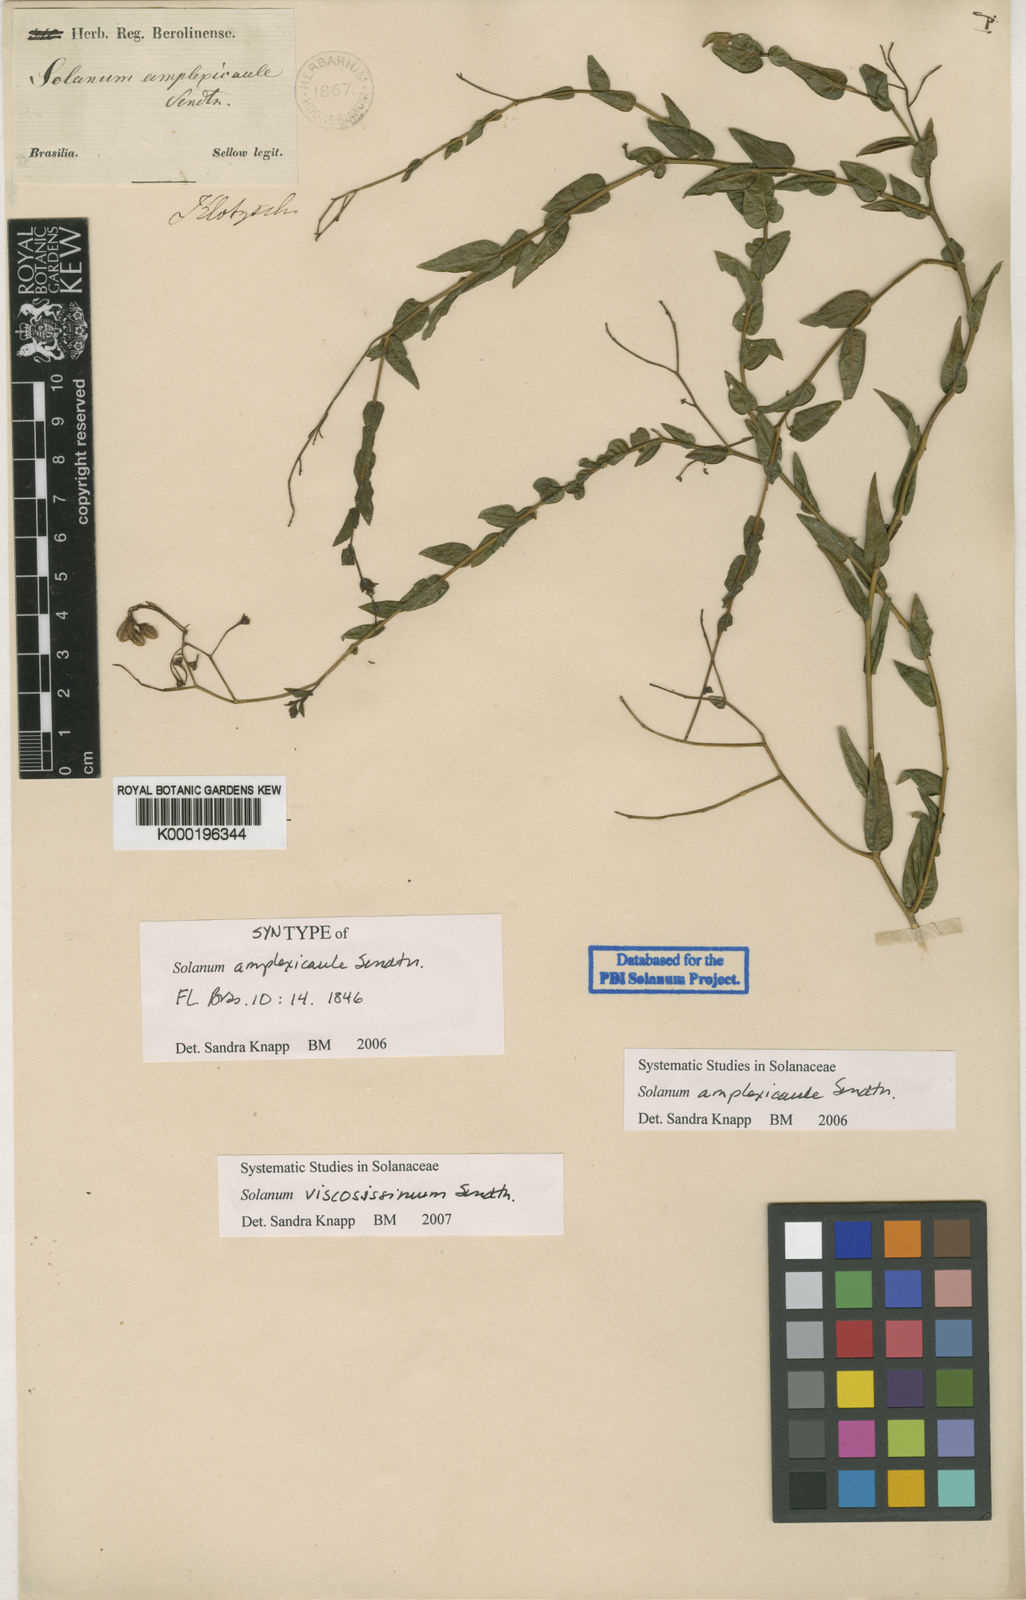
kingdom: Plantae
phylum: Tracheophyta
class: Magnoliopsida
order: Solanales
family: Solanaceae
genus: Solanum
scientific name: Solanum viscosissimum
